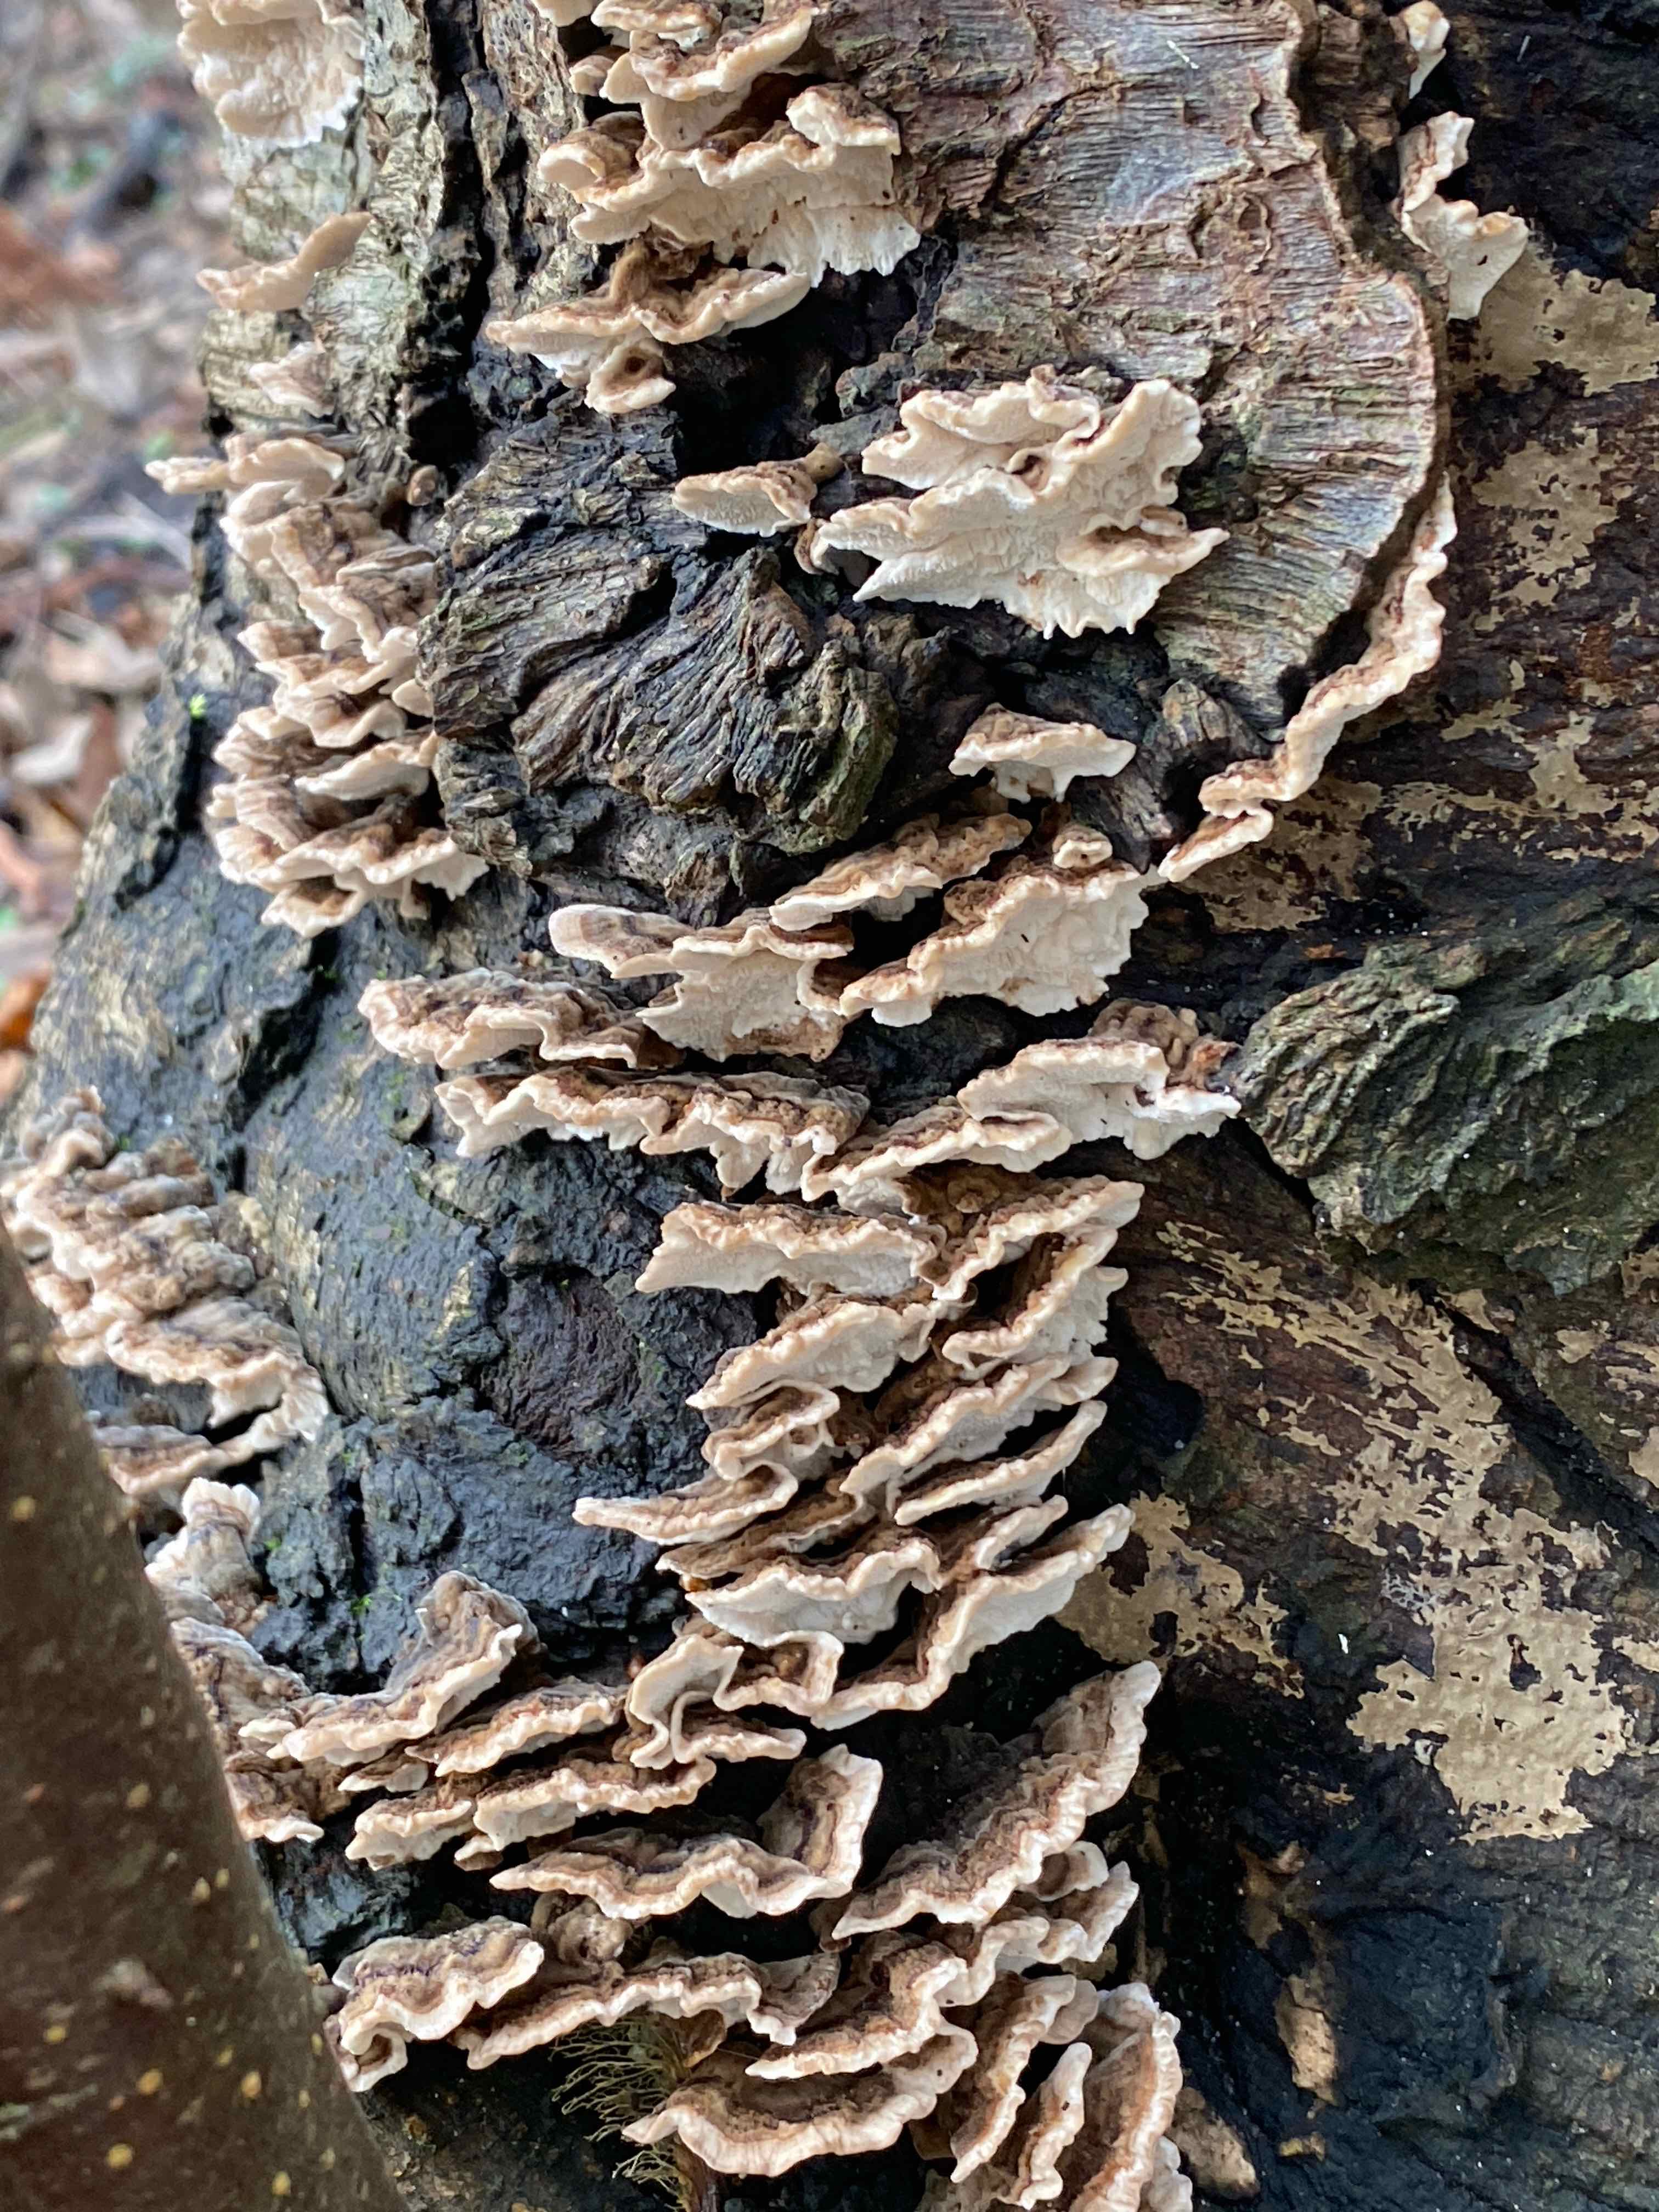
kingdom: Fungi
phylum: Basidiomycota
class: Agaricomycetes
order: Polyporales
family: Polyporaceae
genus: Trametes
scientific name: Trametes versicolor
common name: broget læderporesvamp
